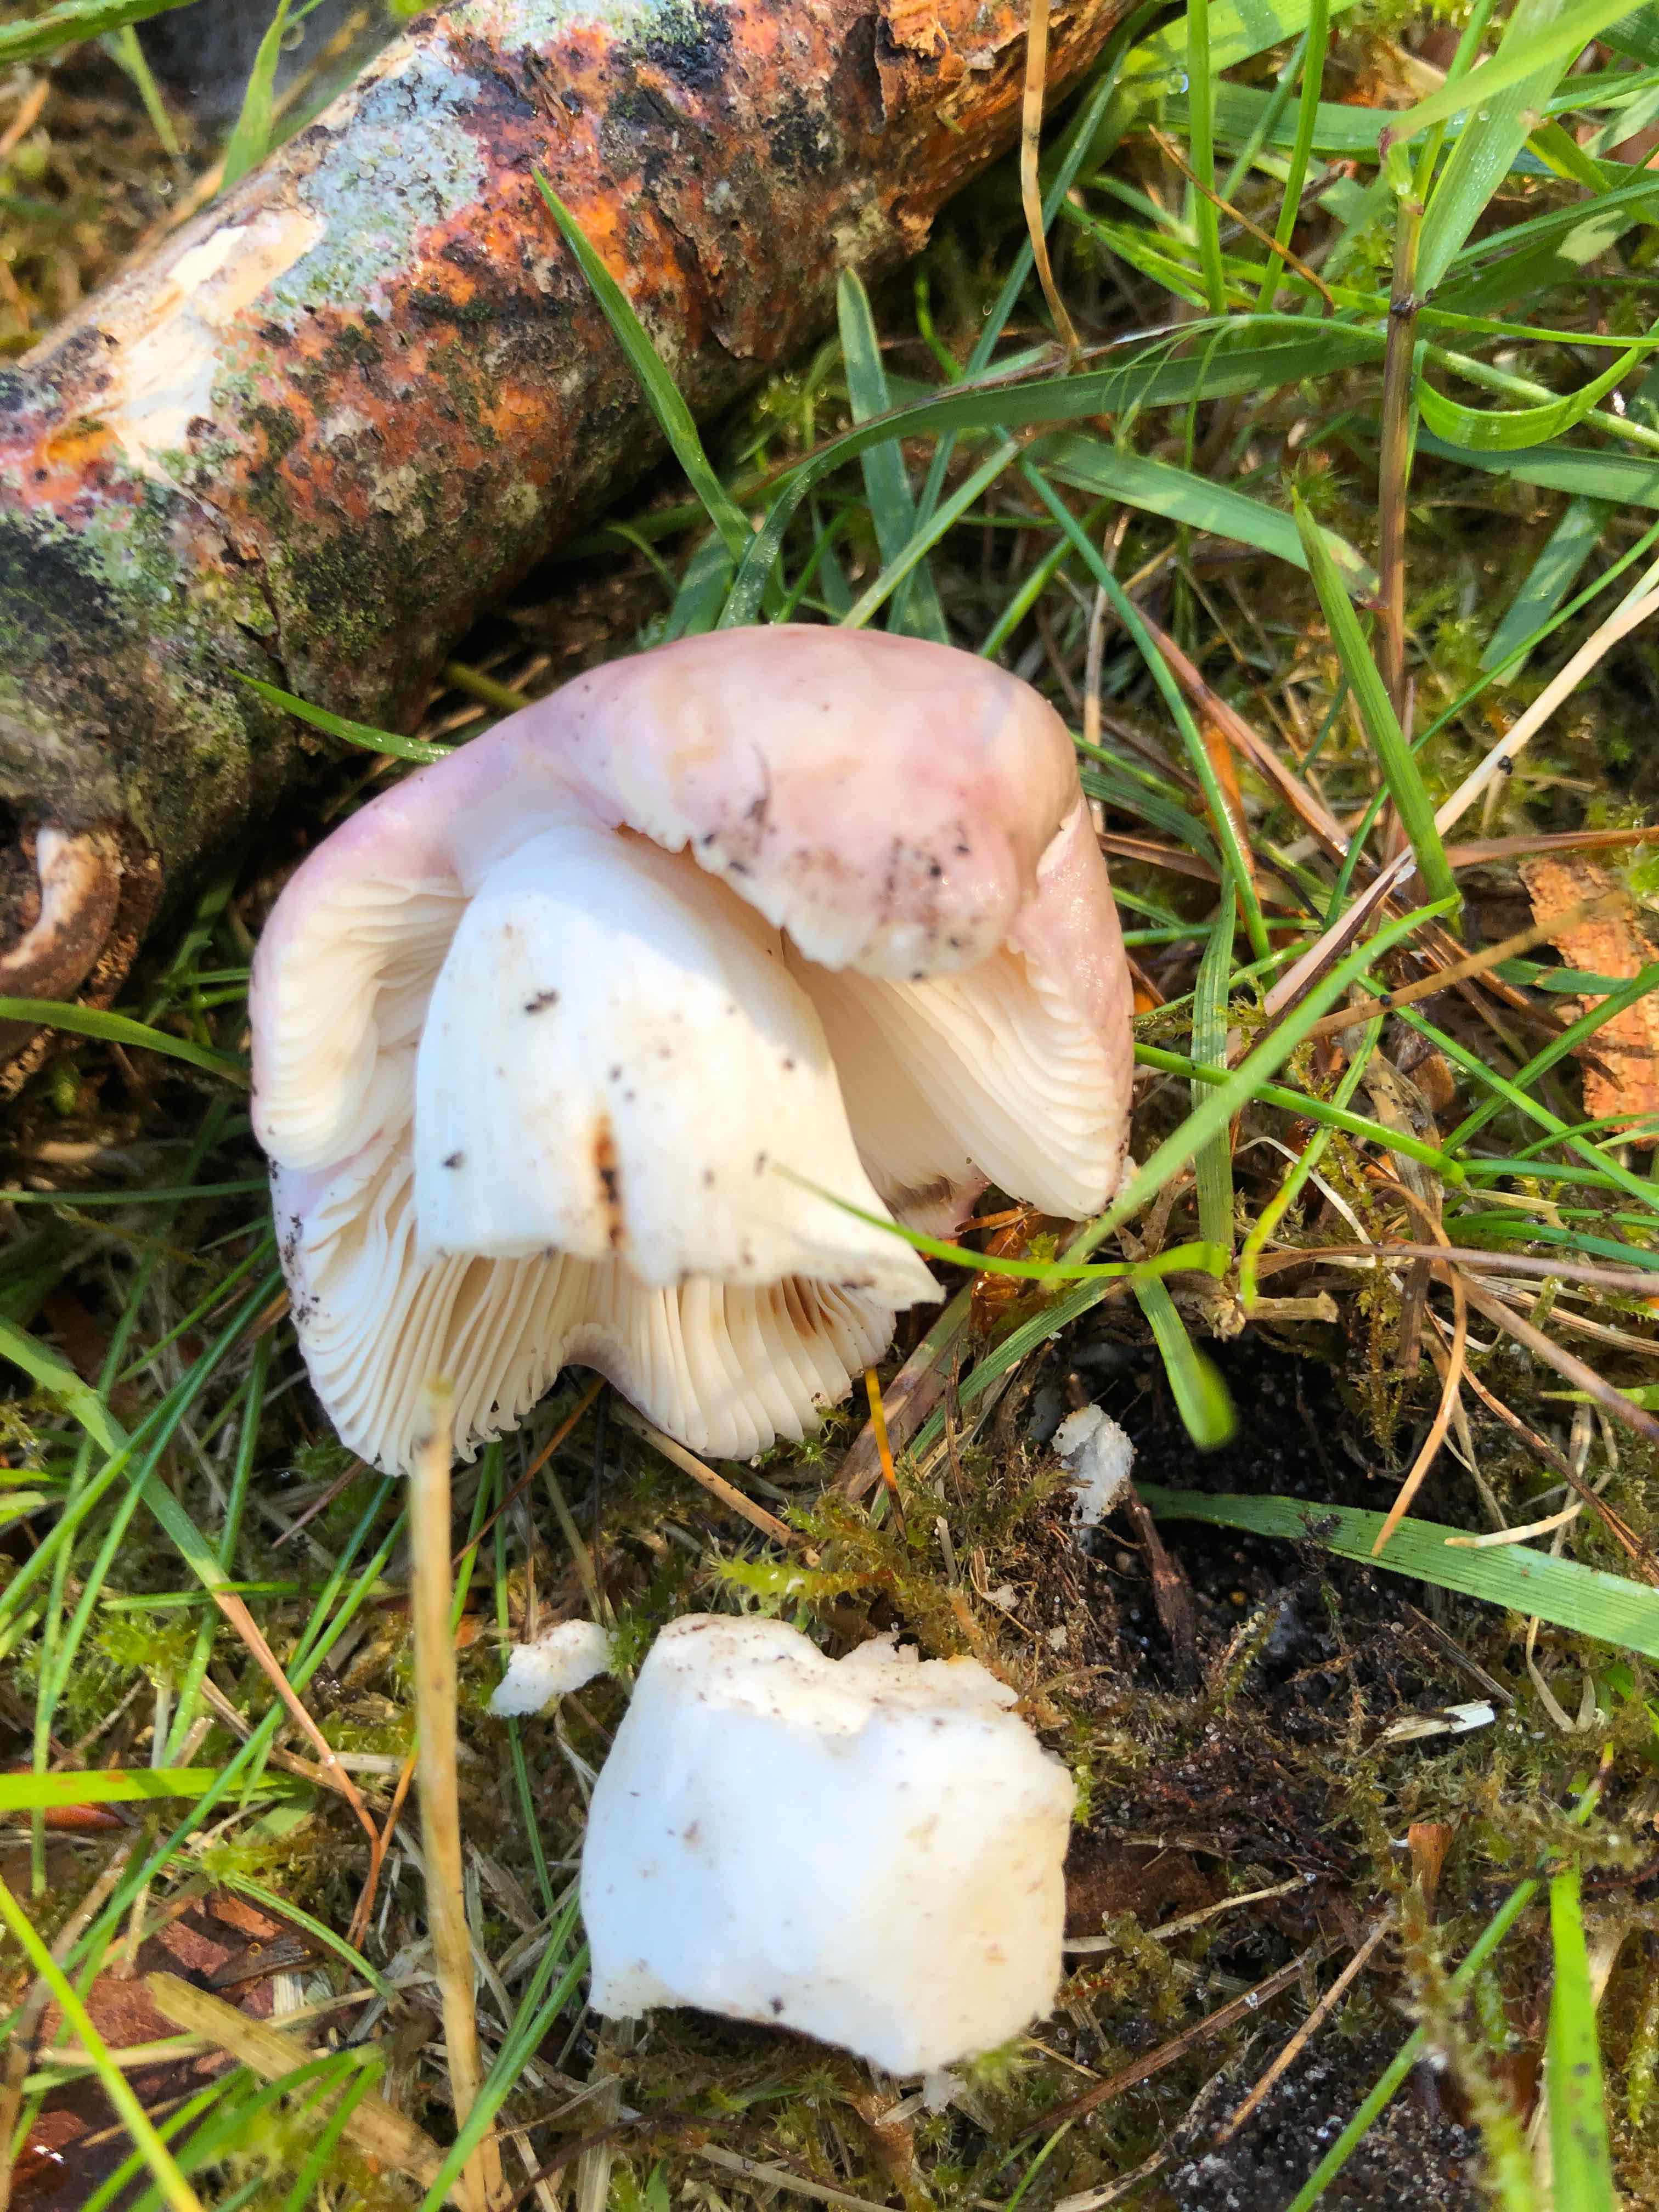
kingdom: Fungi
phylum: Basidiomycota
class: Agaricomycetes
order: Russulales
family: Russulaceae
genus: Russula
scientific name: Russula vesca
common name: spiselig skørhat
